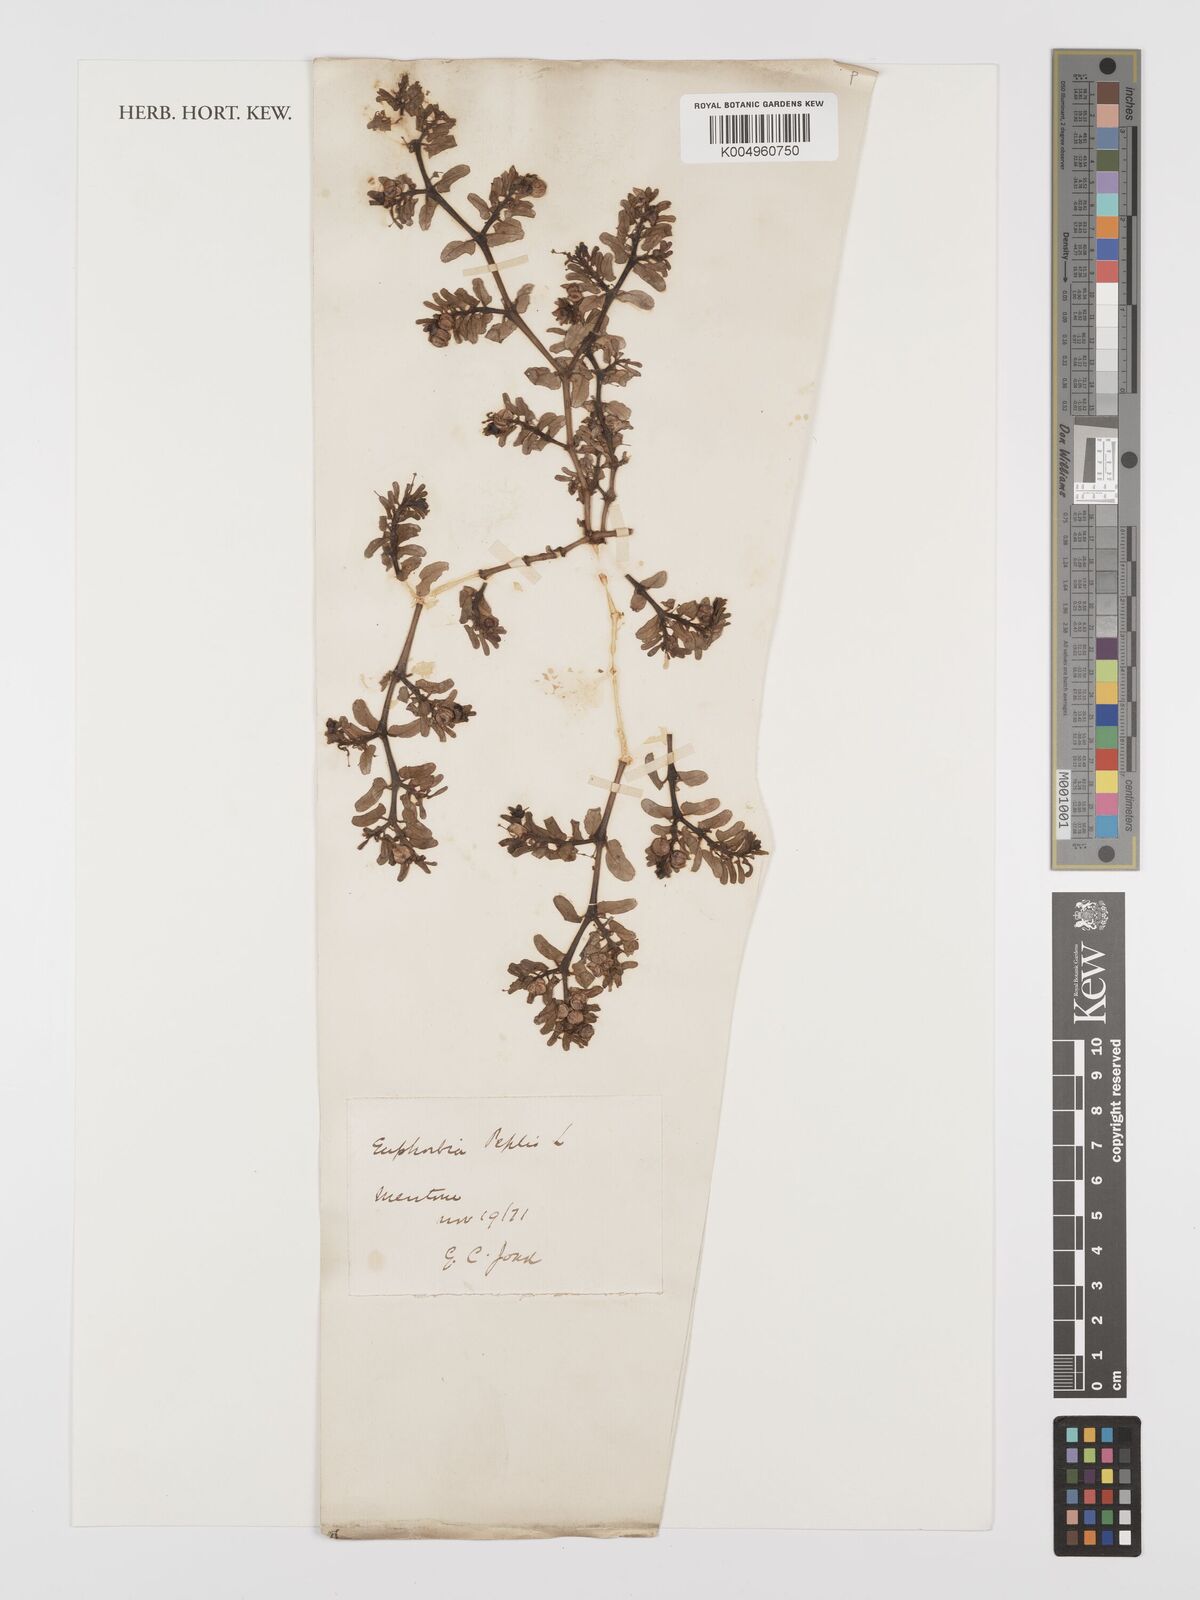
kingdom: Plantae
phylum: Tracheophyta
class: Magnoliopsida
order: Malpighiales
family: Euphorbiaceae
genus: Euphorbia
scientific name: Euphorbia peplis
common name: Purple spurge
